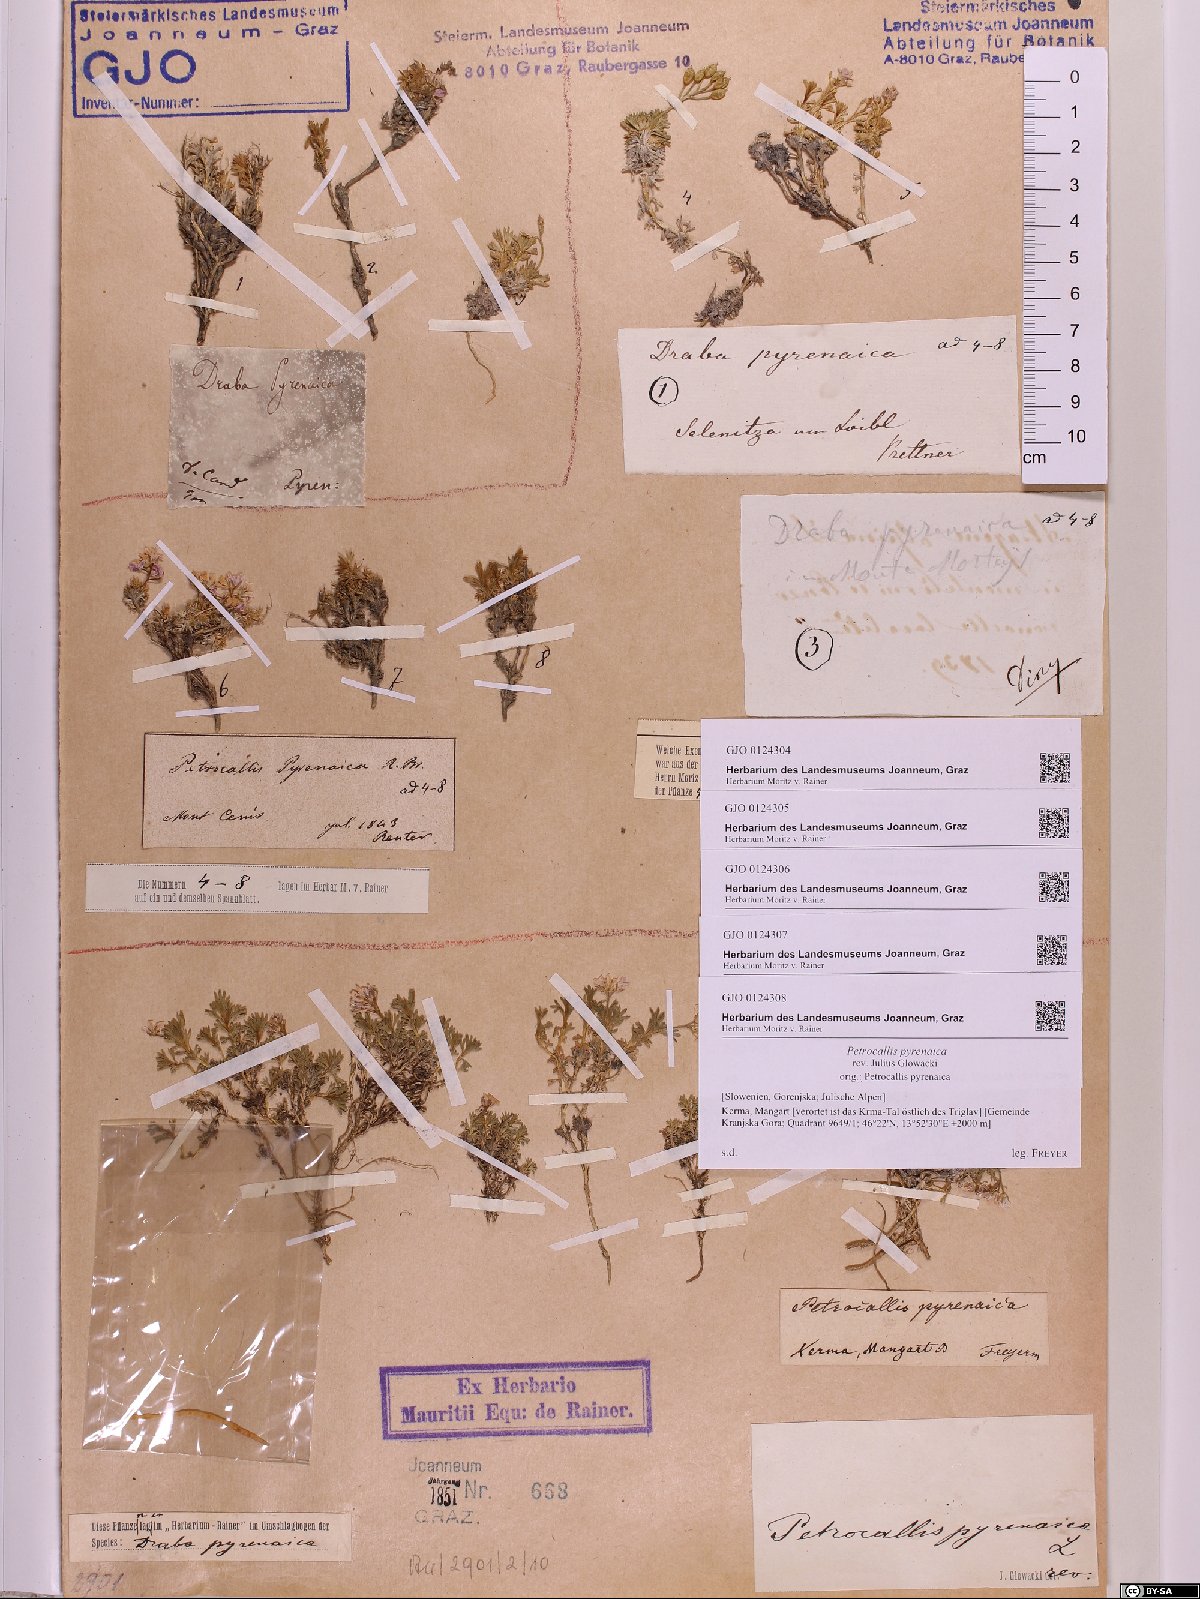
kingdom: Plantae
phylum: Tracheophyta
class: Magnoliopsida
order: Brassicales
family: Brassicaceae
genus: Petrocallis
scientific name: Petrocallis pyrenaica
